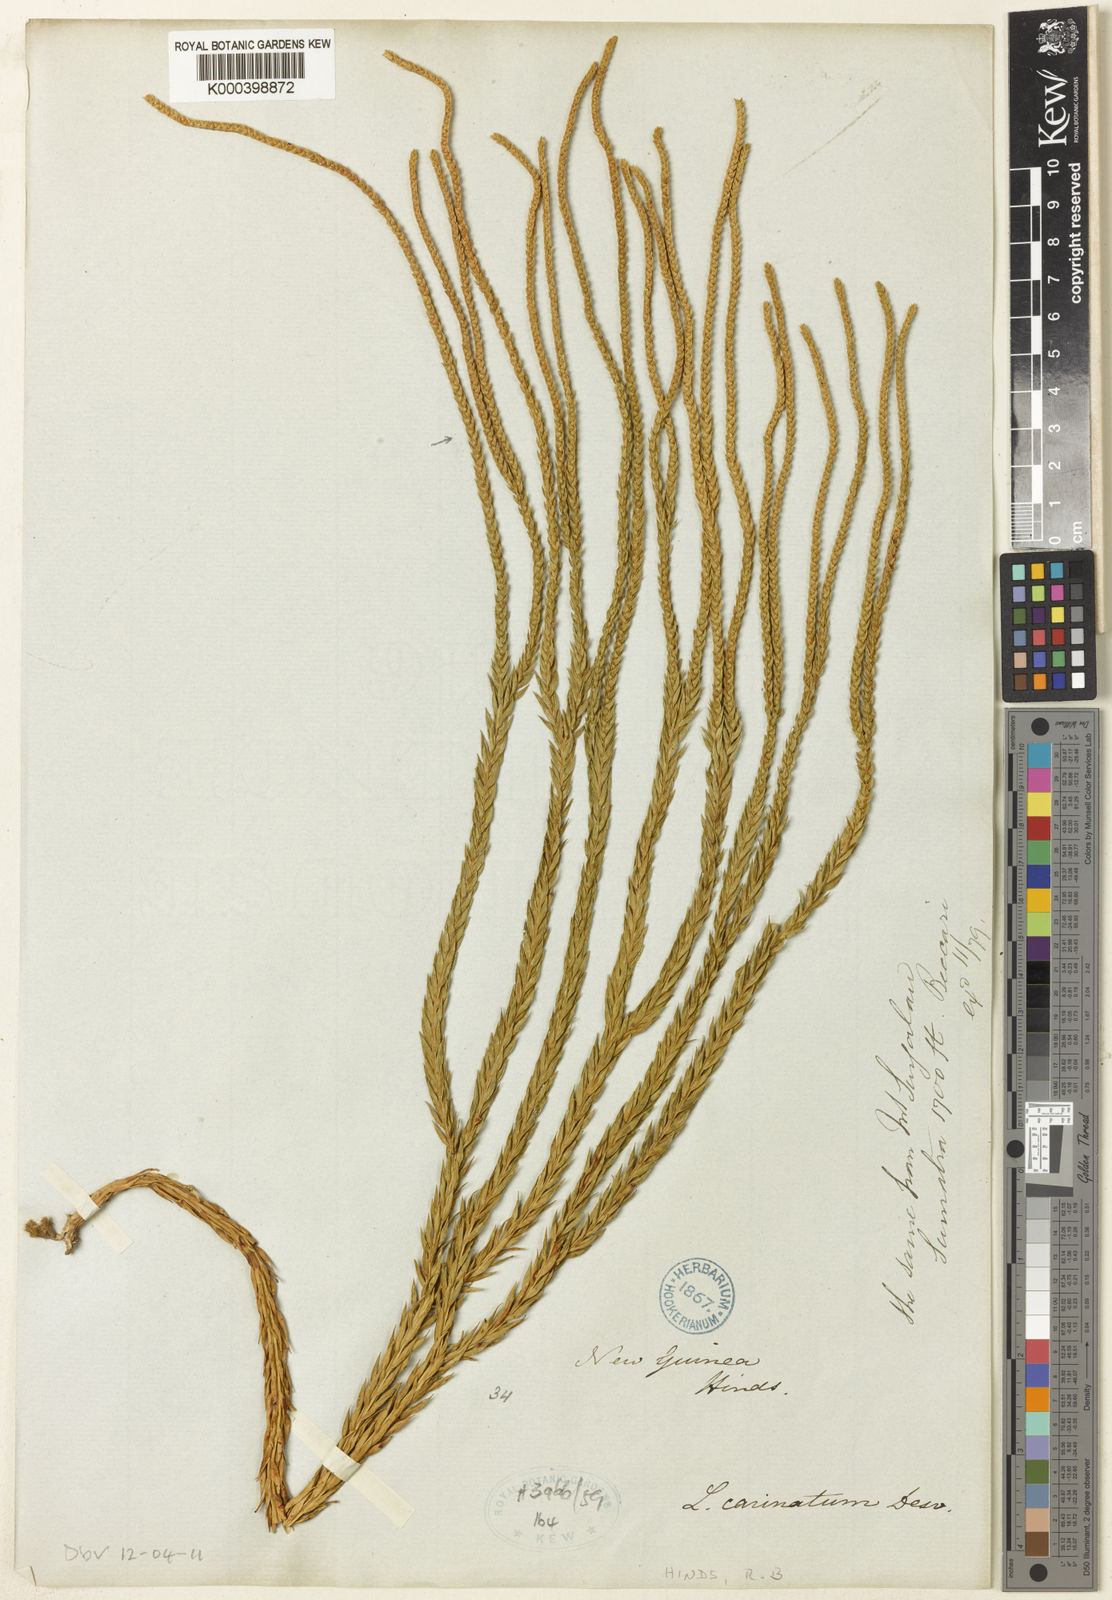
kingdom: Plantae
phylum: Tracheophyta
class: Lycopodiopsida
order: Lycopodiales
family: Lycopodiaceae
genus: Phlegmariurus
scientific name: Phlegmariurus carinatus
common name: Keeled tassel-fern
